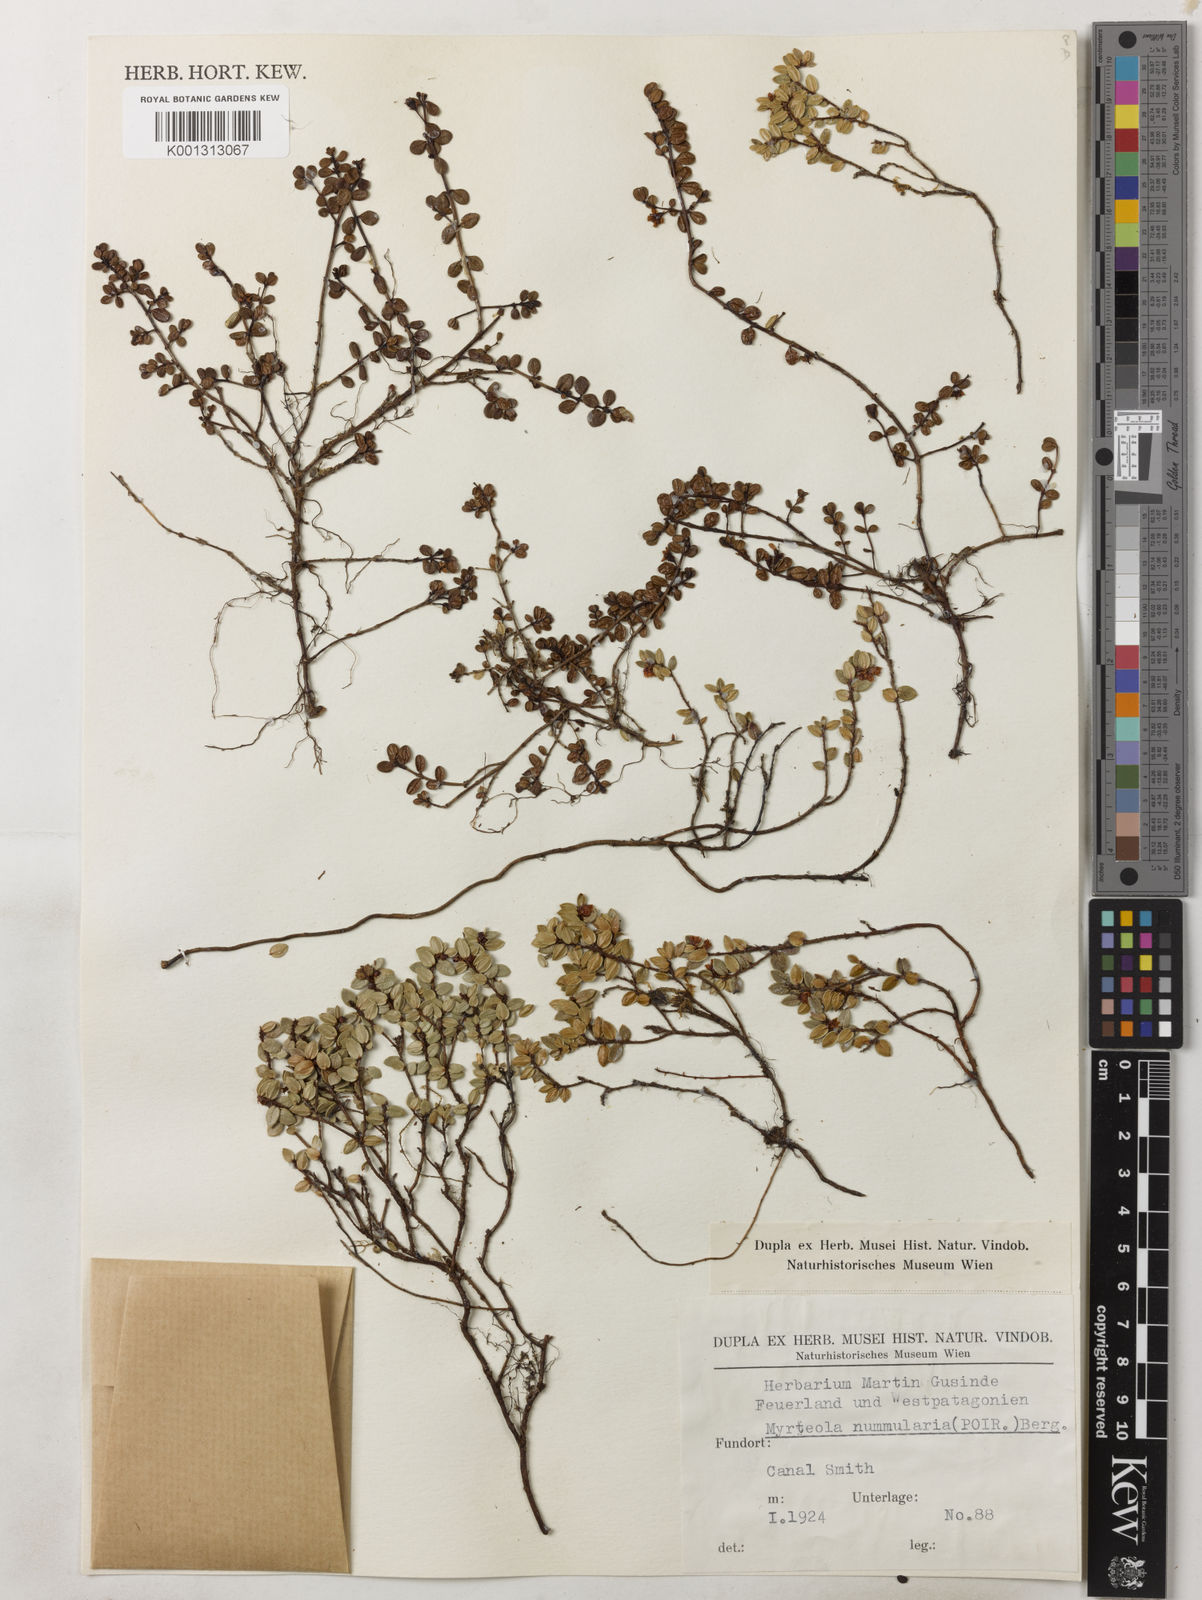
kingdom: Plantae
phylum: Tracheophyta
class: Magnoliopsida
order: Myrtales
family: Myrtaceae
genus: Myrteola
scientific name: Myrteola nummularia
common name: Cranberry-myrtle
